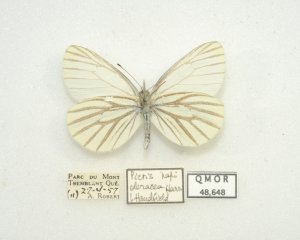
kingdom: Animalia
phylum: Arthropoda
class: Insecta
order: Lepidoptera
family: Pieridae
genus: Pieris
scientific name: Pieris oleracea
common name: Mustard White
